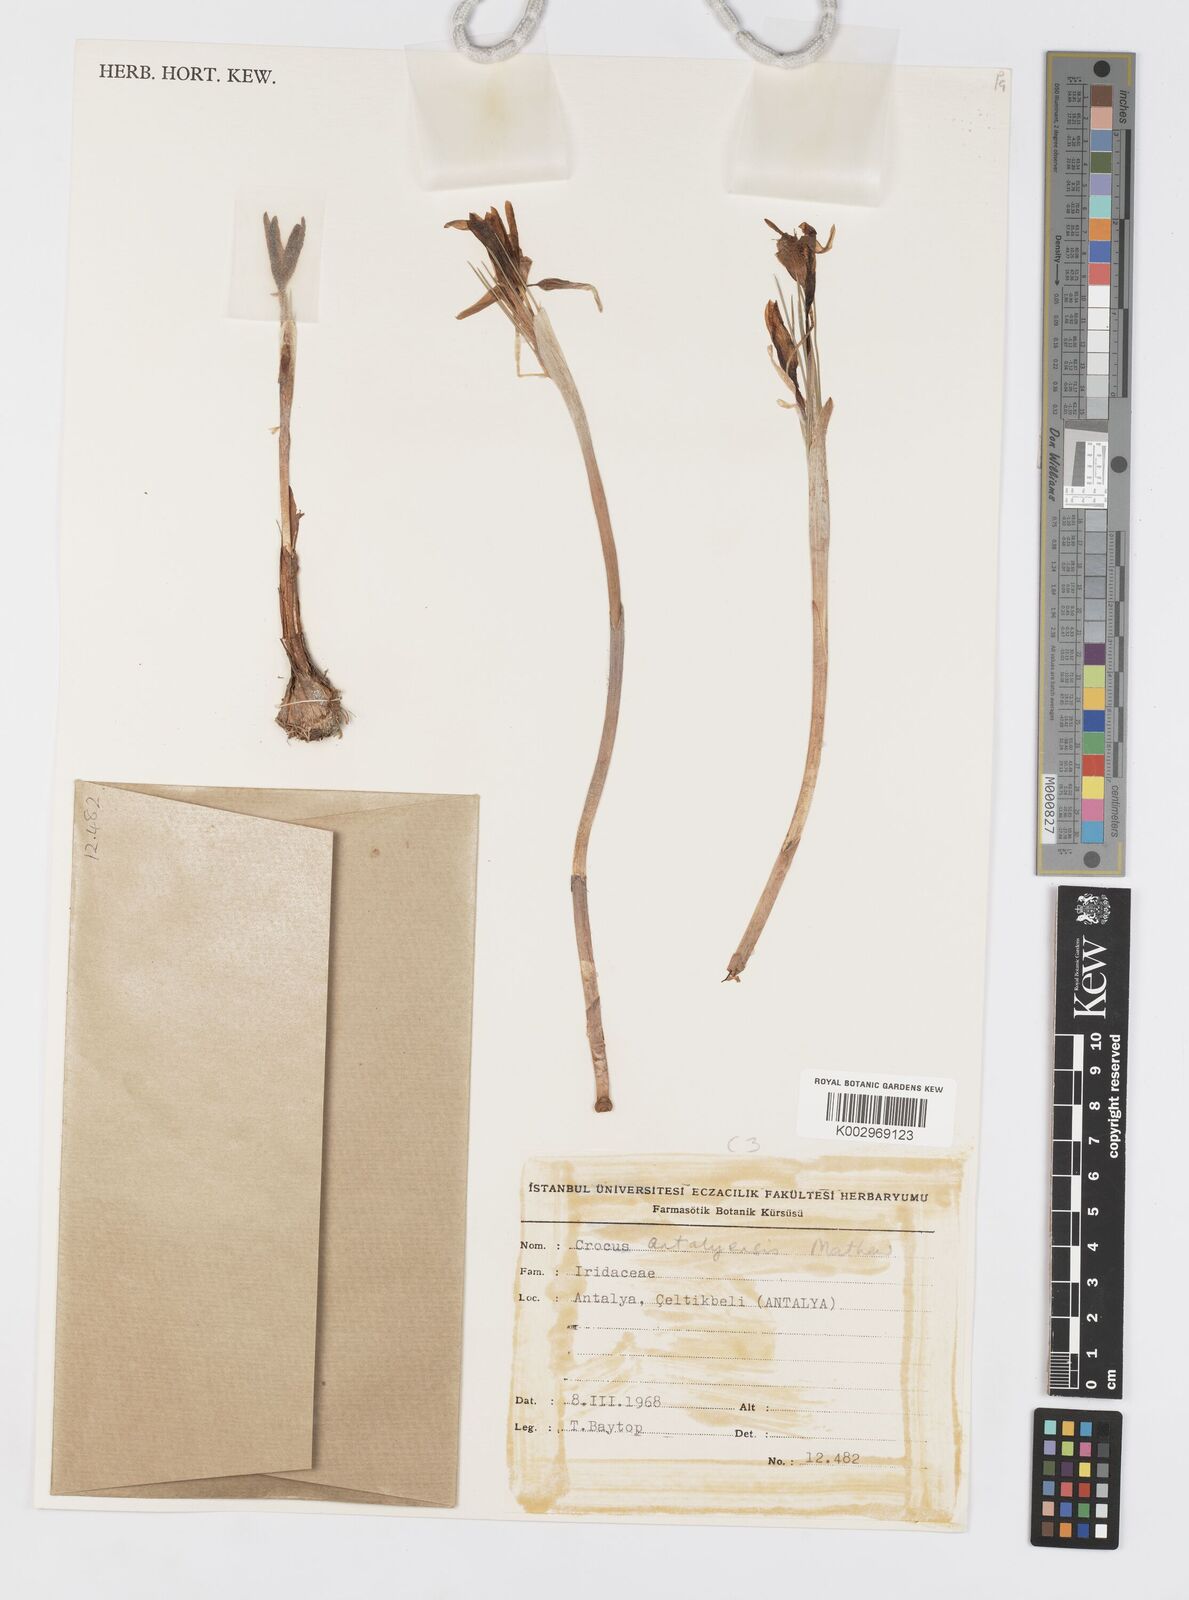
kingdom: Plantae
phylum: Tracheophyta
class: Liliopsida
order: Asparagales
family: Iridaceae
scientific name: Iridaceae
